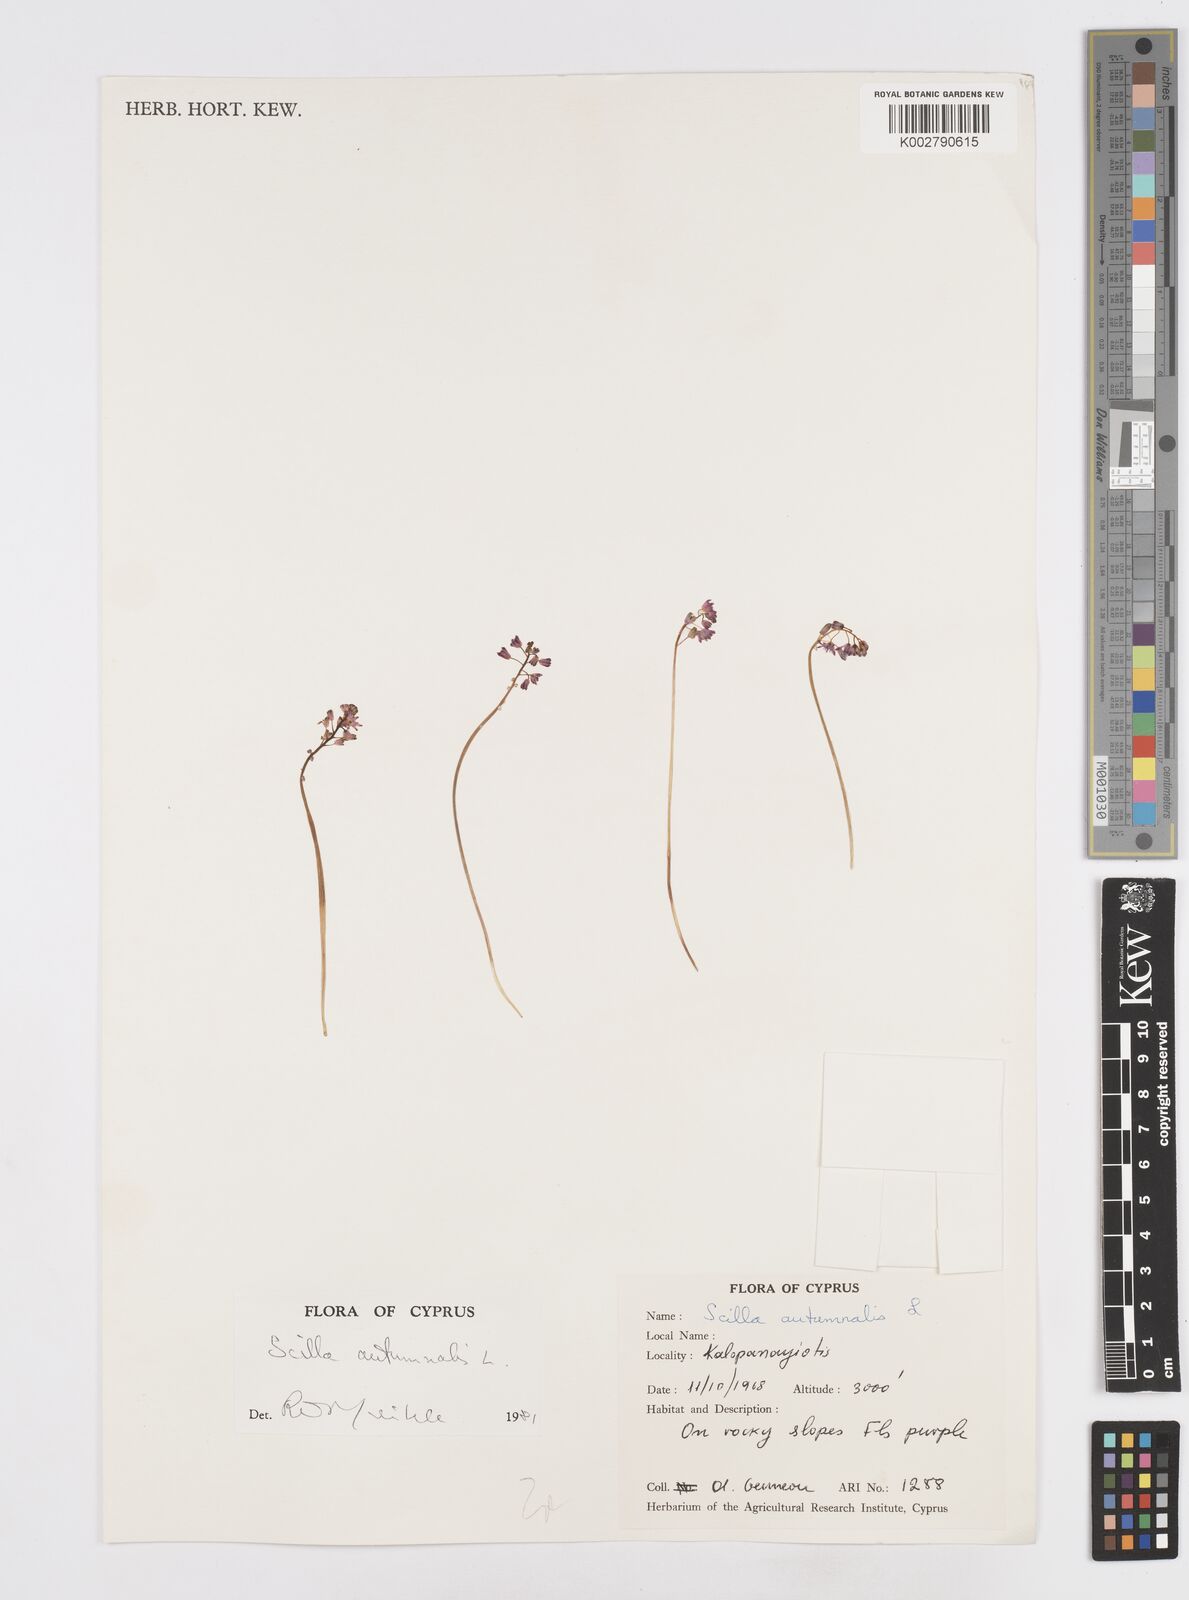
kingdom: Plantae
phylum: Tracheophyta
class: Liliopsida
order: Asparagales
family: Asparagaceae
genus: Prospero
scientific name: Prospero autumnale
